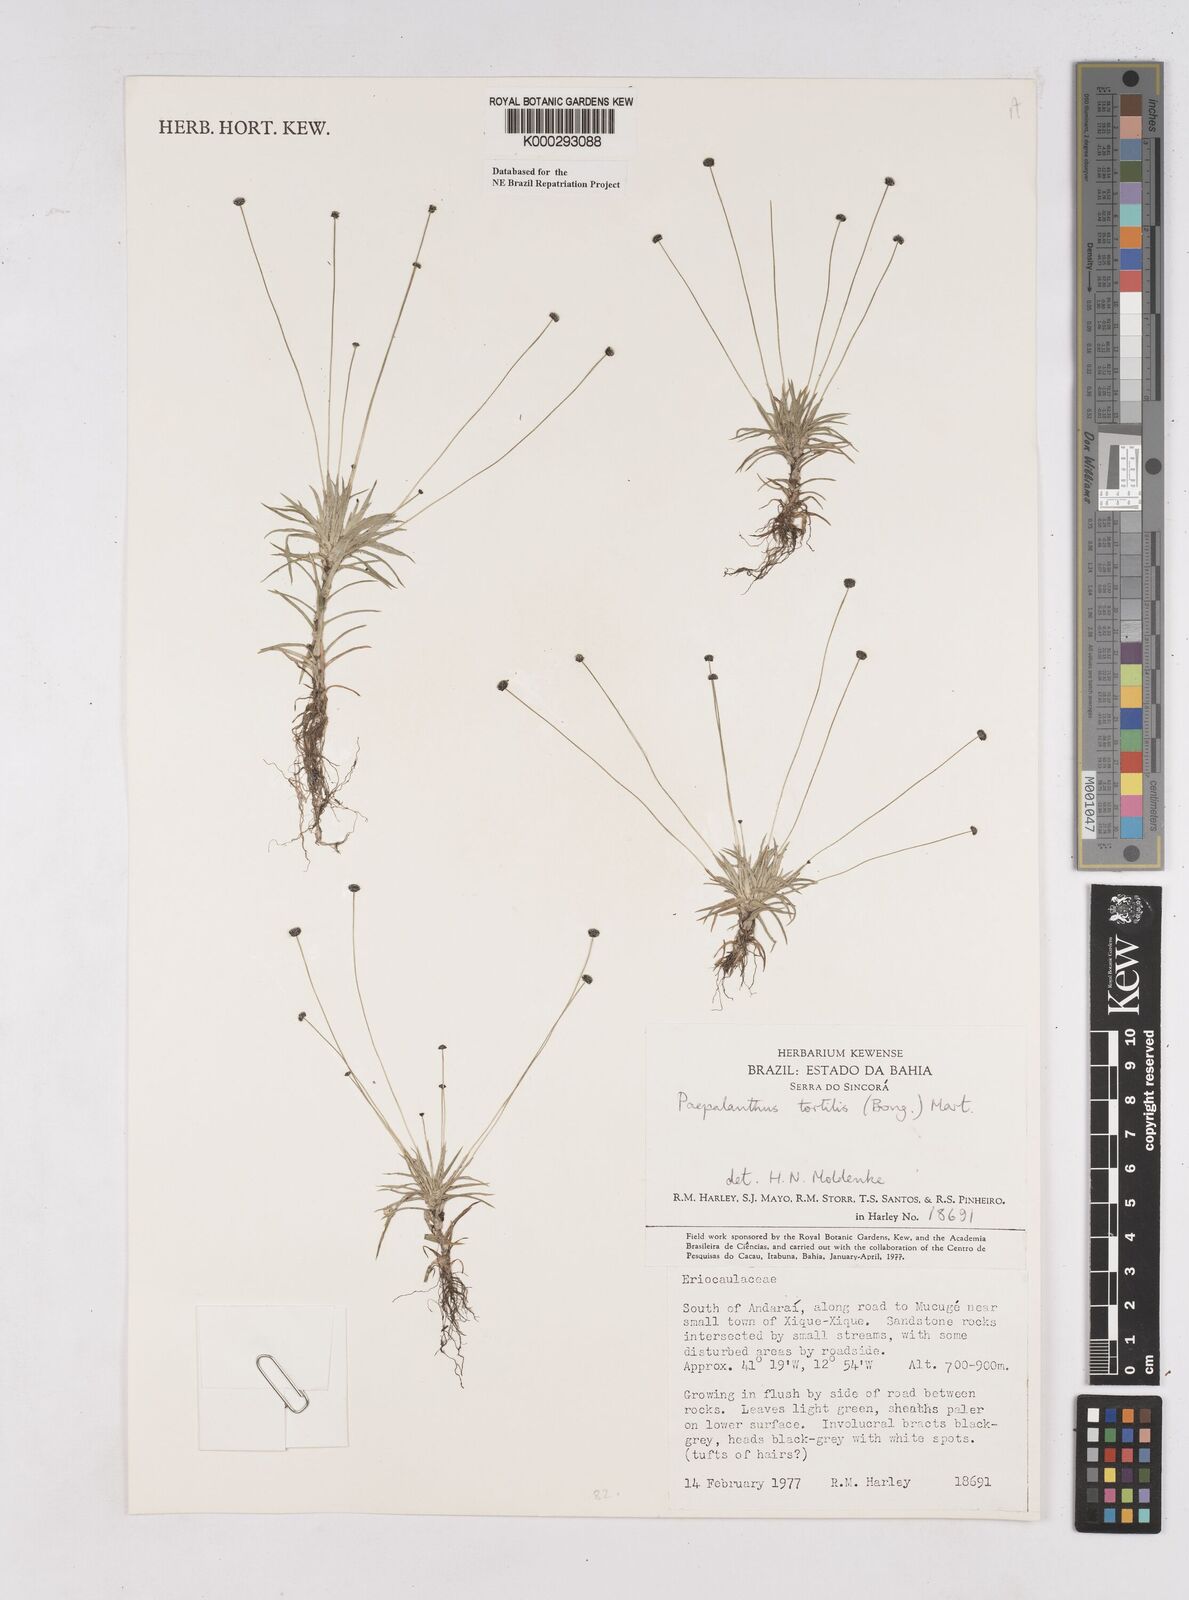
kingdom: Plantae
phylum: Tracheophyta
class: Liliopsida
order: Poales
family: Eriocaulaceae
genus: Paepalanthus
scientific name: Paepalanthus
